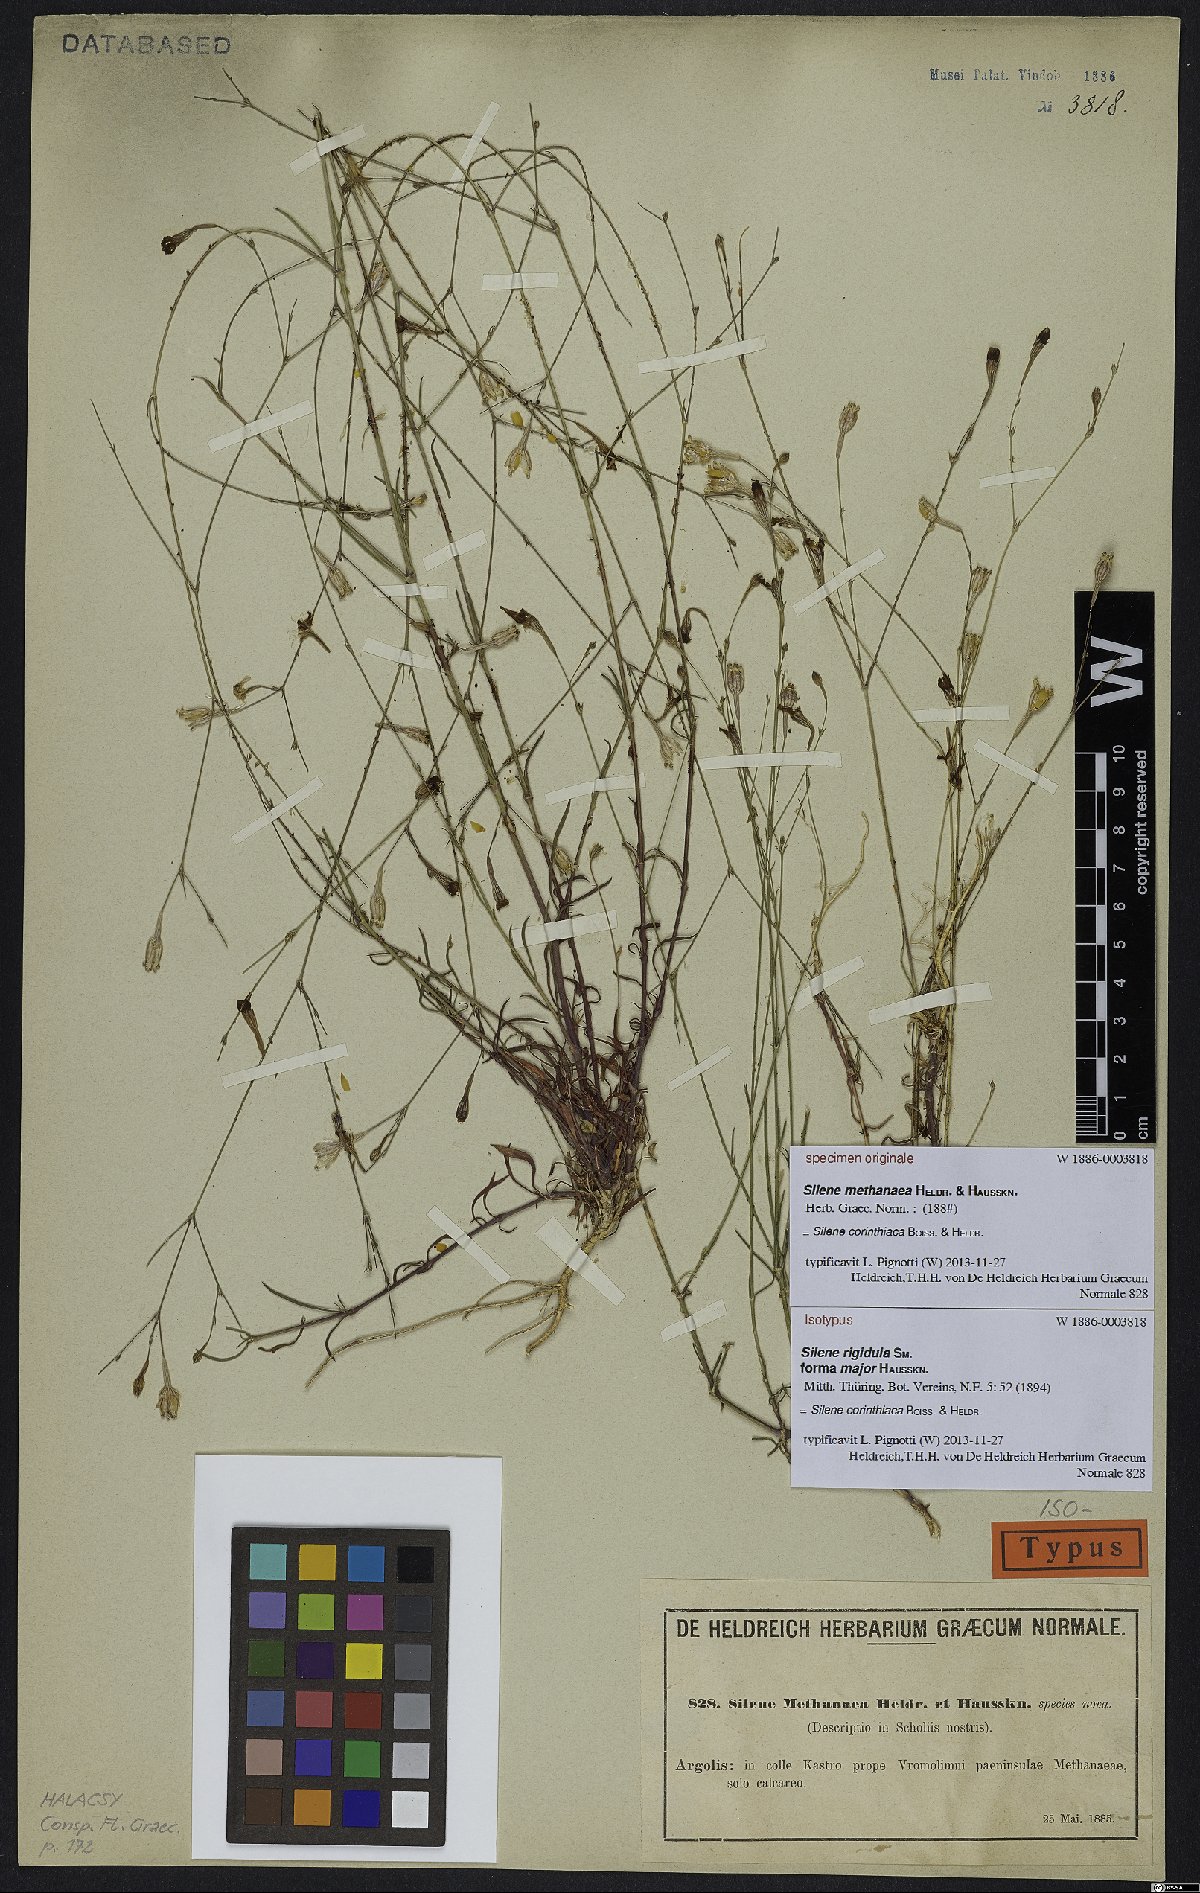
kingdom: Plantae
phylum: Tracheophyta
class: Magnoliopsida
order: Caryophyllales
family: Caryophyllaceae
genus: Silene
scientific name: Silene corinthiaca
